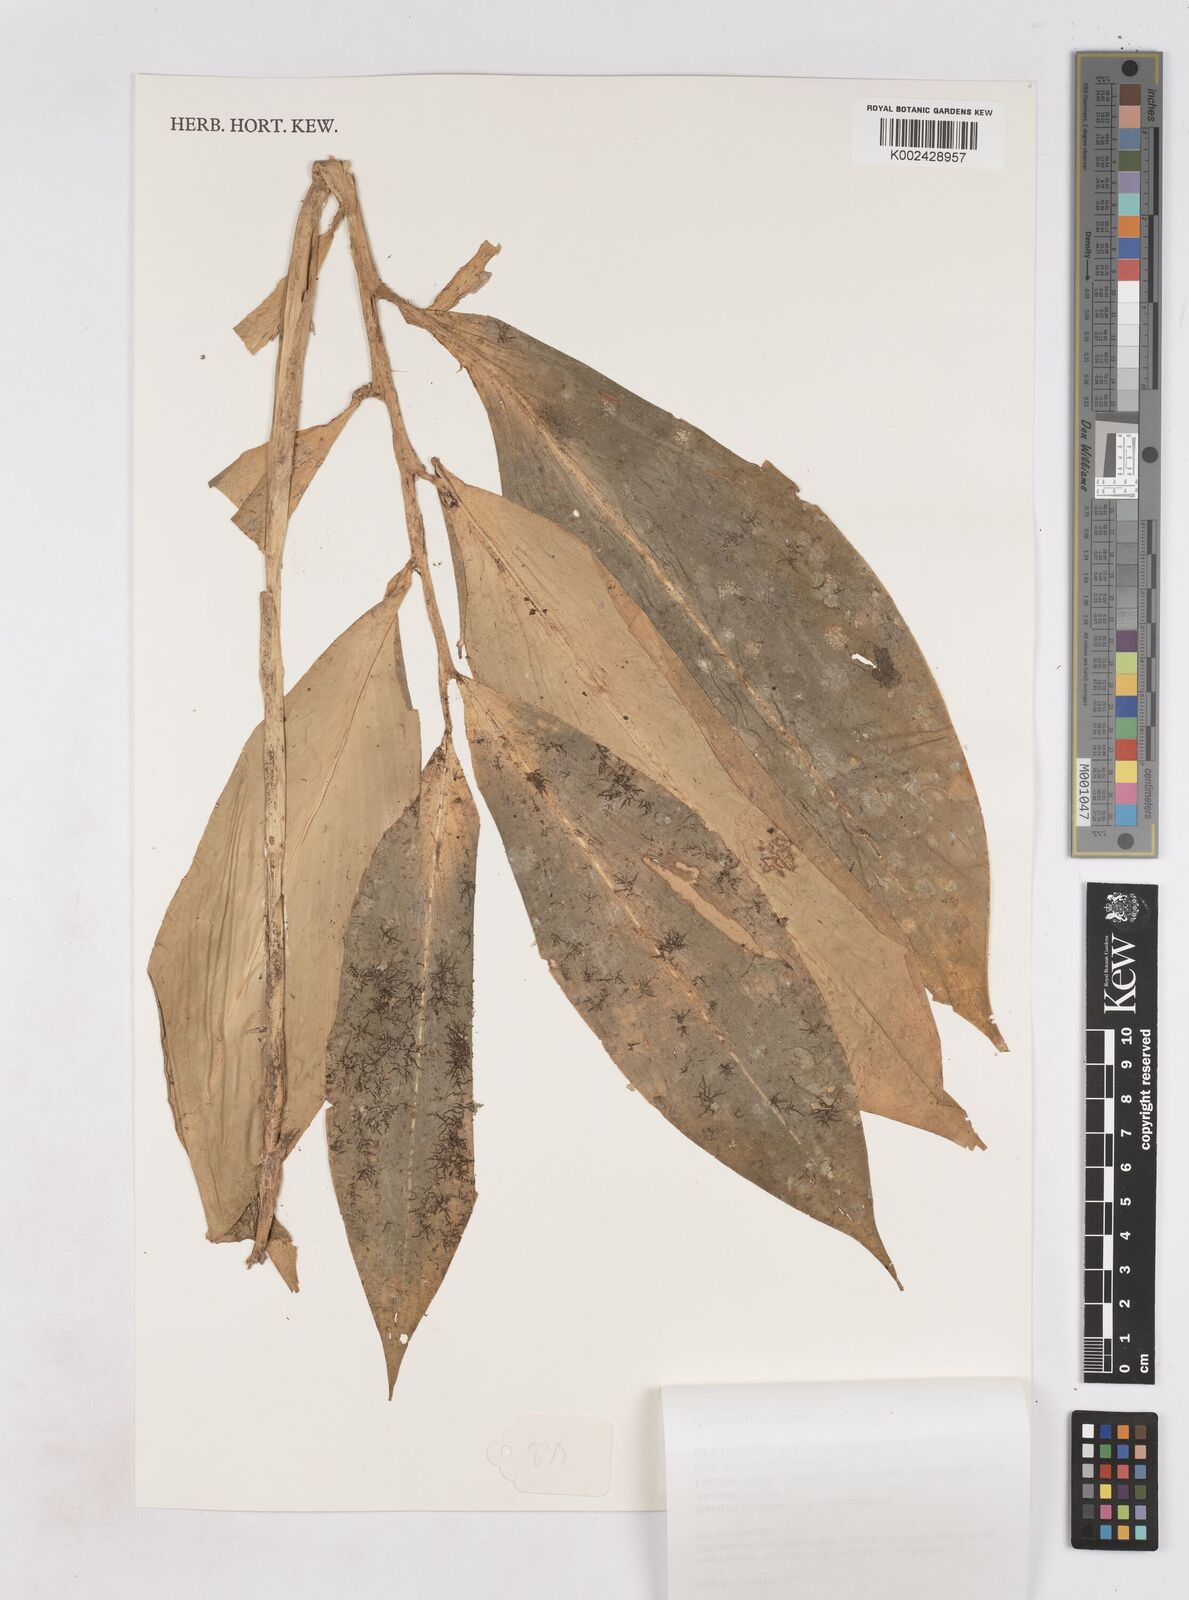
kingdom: Plantae
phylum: Tracheophyta
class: Liliopsida
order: Zingiberales
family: Zingiberaceae
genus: Zingiber
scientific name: Zingiber wrayi
